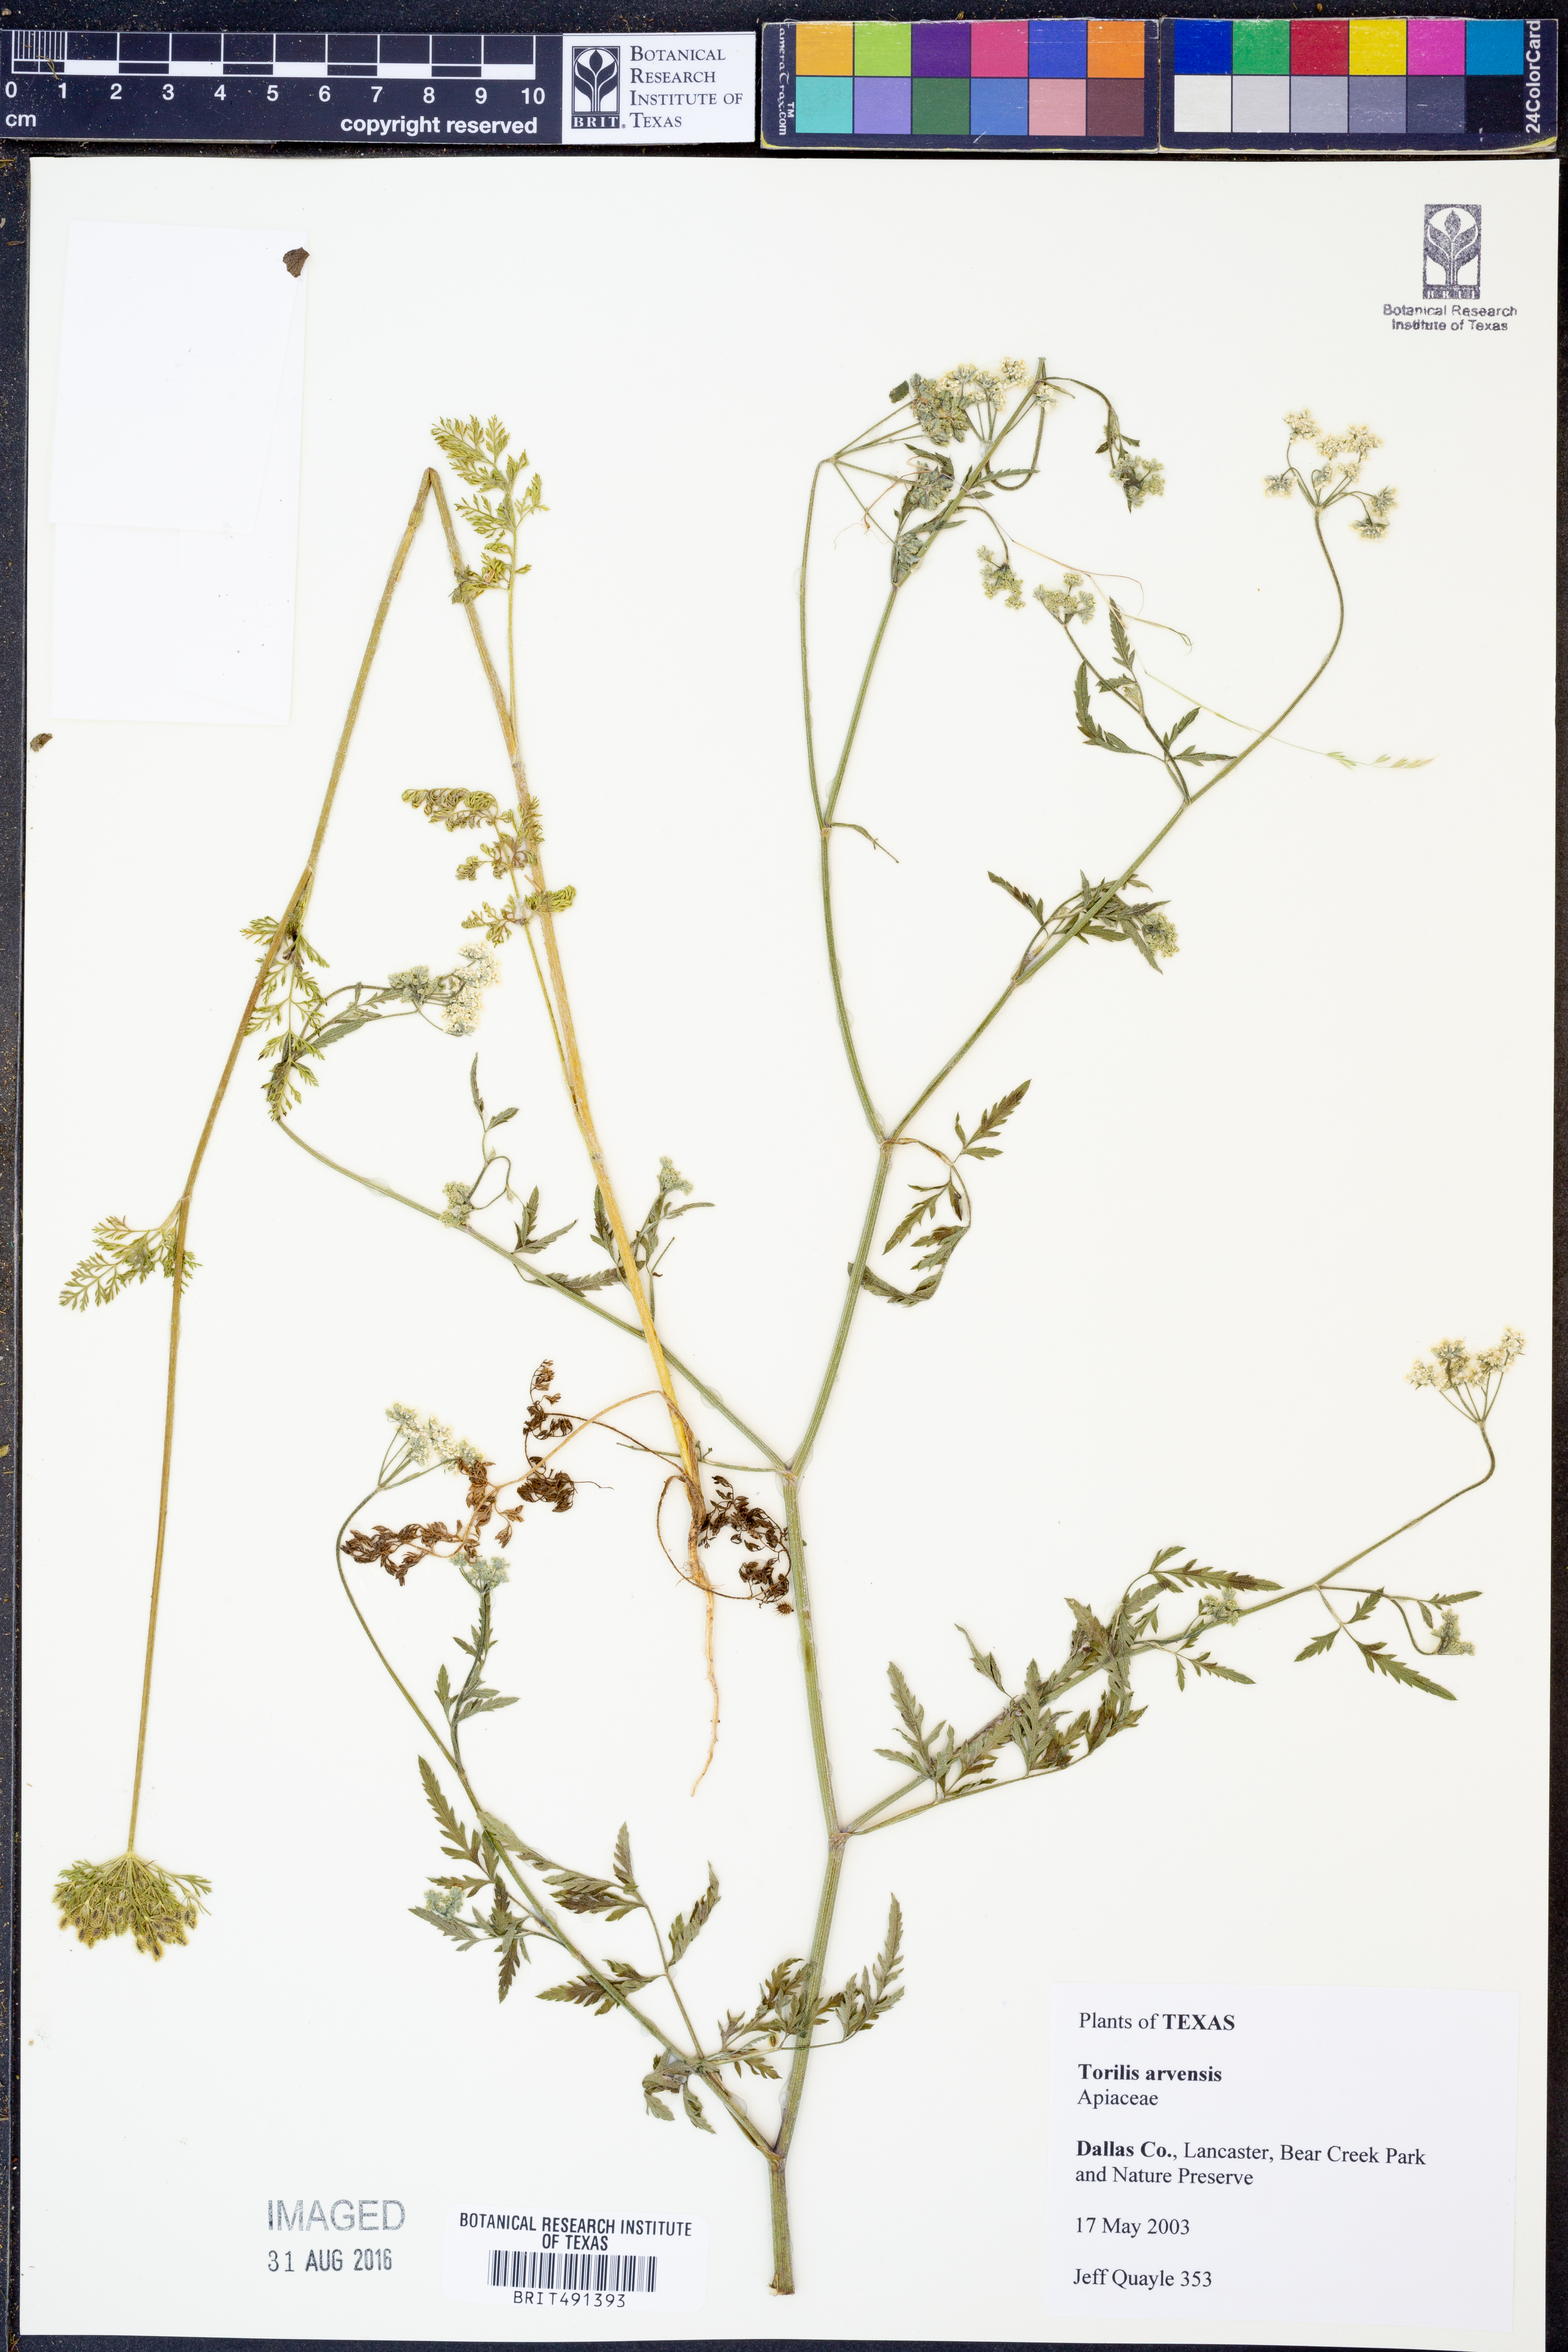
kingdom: Plantae
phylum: Tracheophyta
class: Magnoliopsida
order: Apiales
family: Apiaceae
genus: Torilis
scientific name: Torilis arvensis
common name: Spreading hedge-parsley
